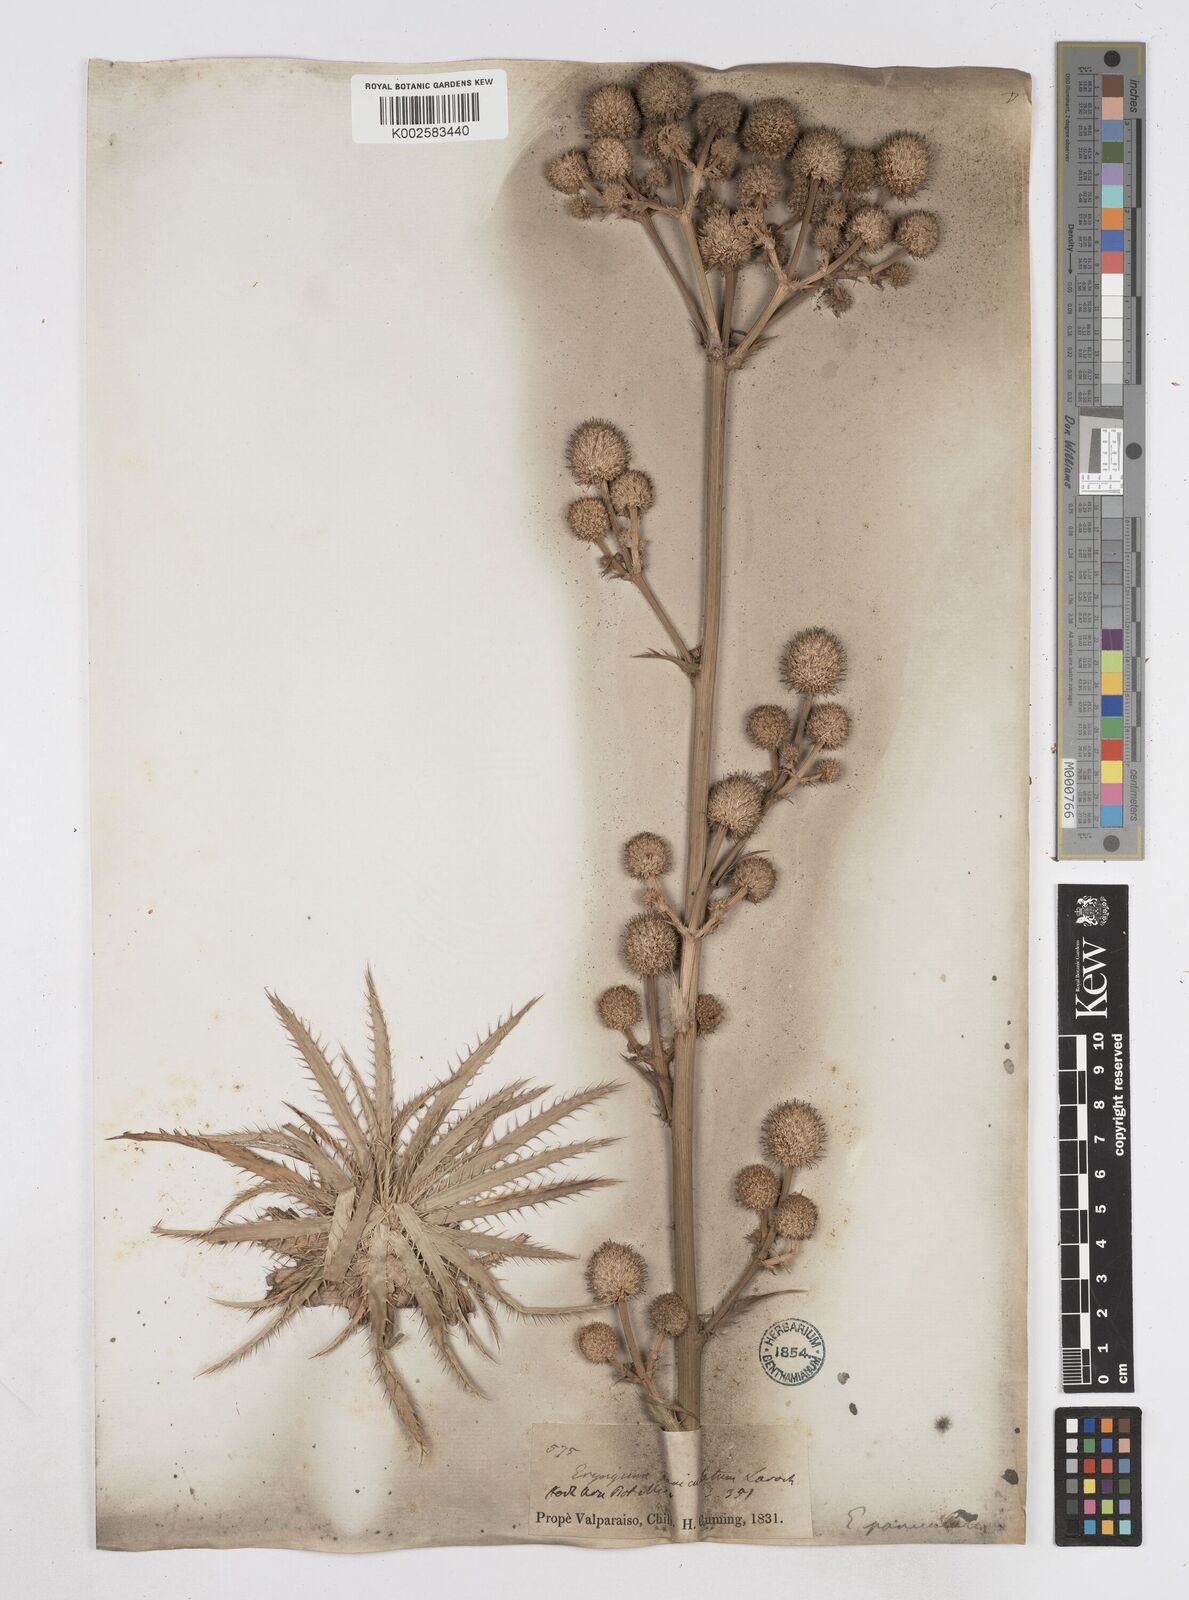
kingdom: Plantae
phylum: Tracheophyta
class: Magnoliopsida
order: Apiales
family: Apiaceae
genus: Eryngium
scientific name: Eryngium humboldtii
